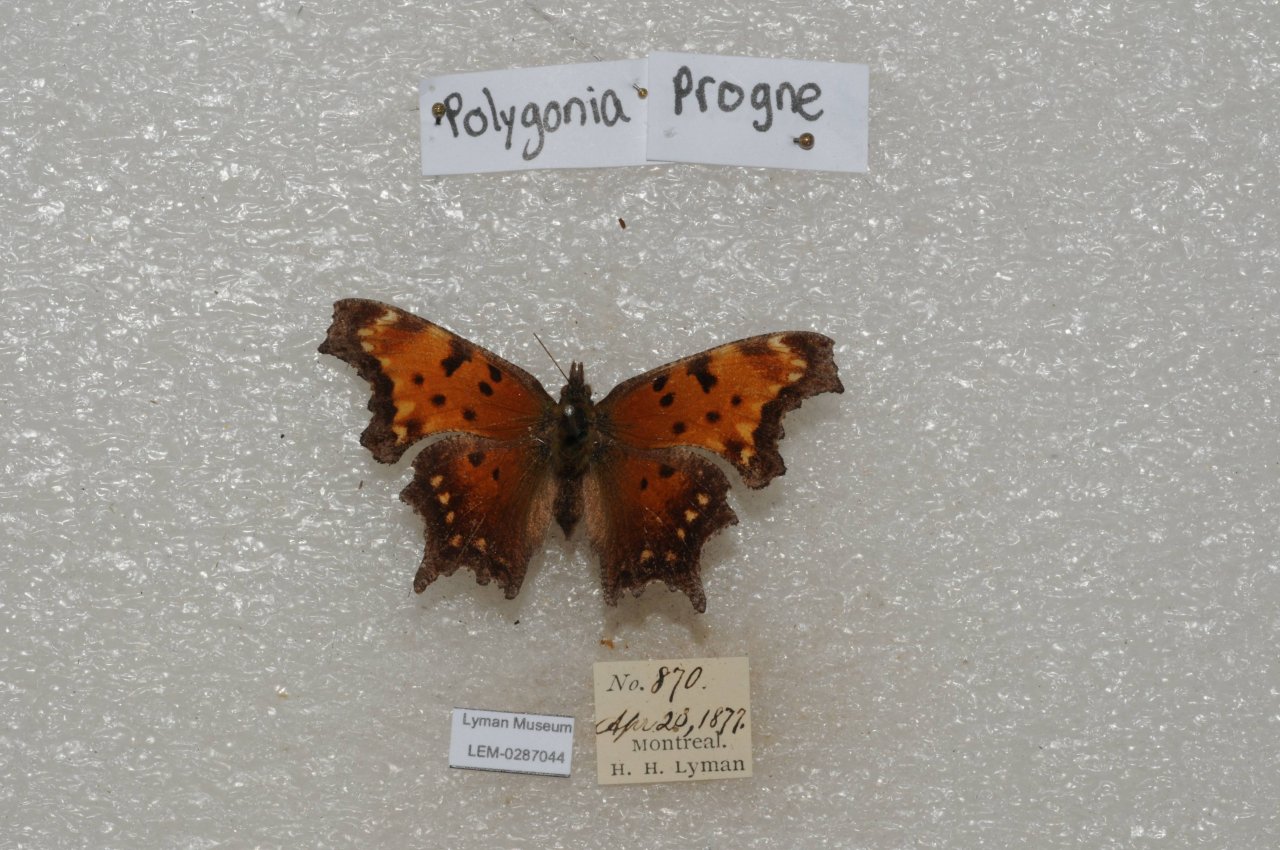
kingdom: Animalia
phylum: Arthropoda
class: Insecta
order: Lepidoptera
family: Nymphalidae
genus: Polygonia
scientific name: Polygonia progne
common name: Gray Comma
